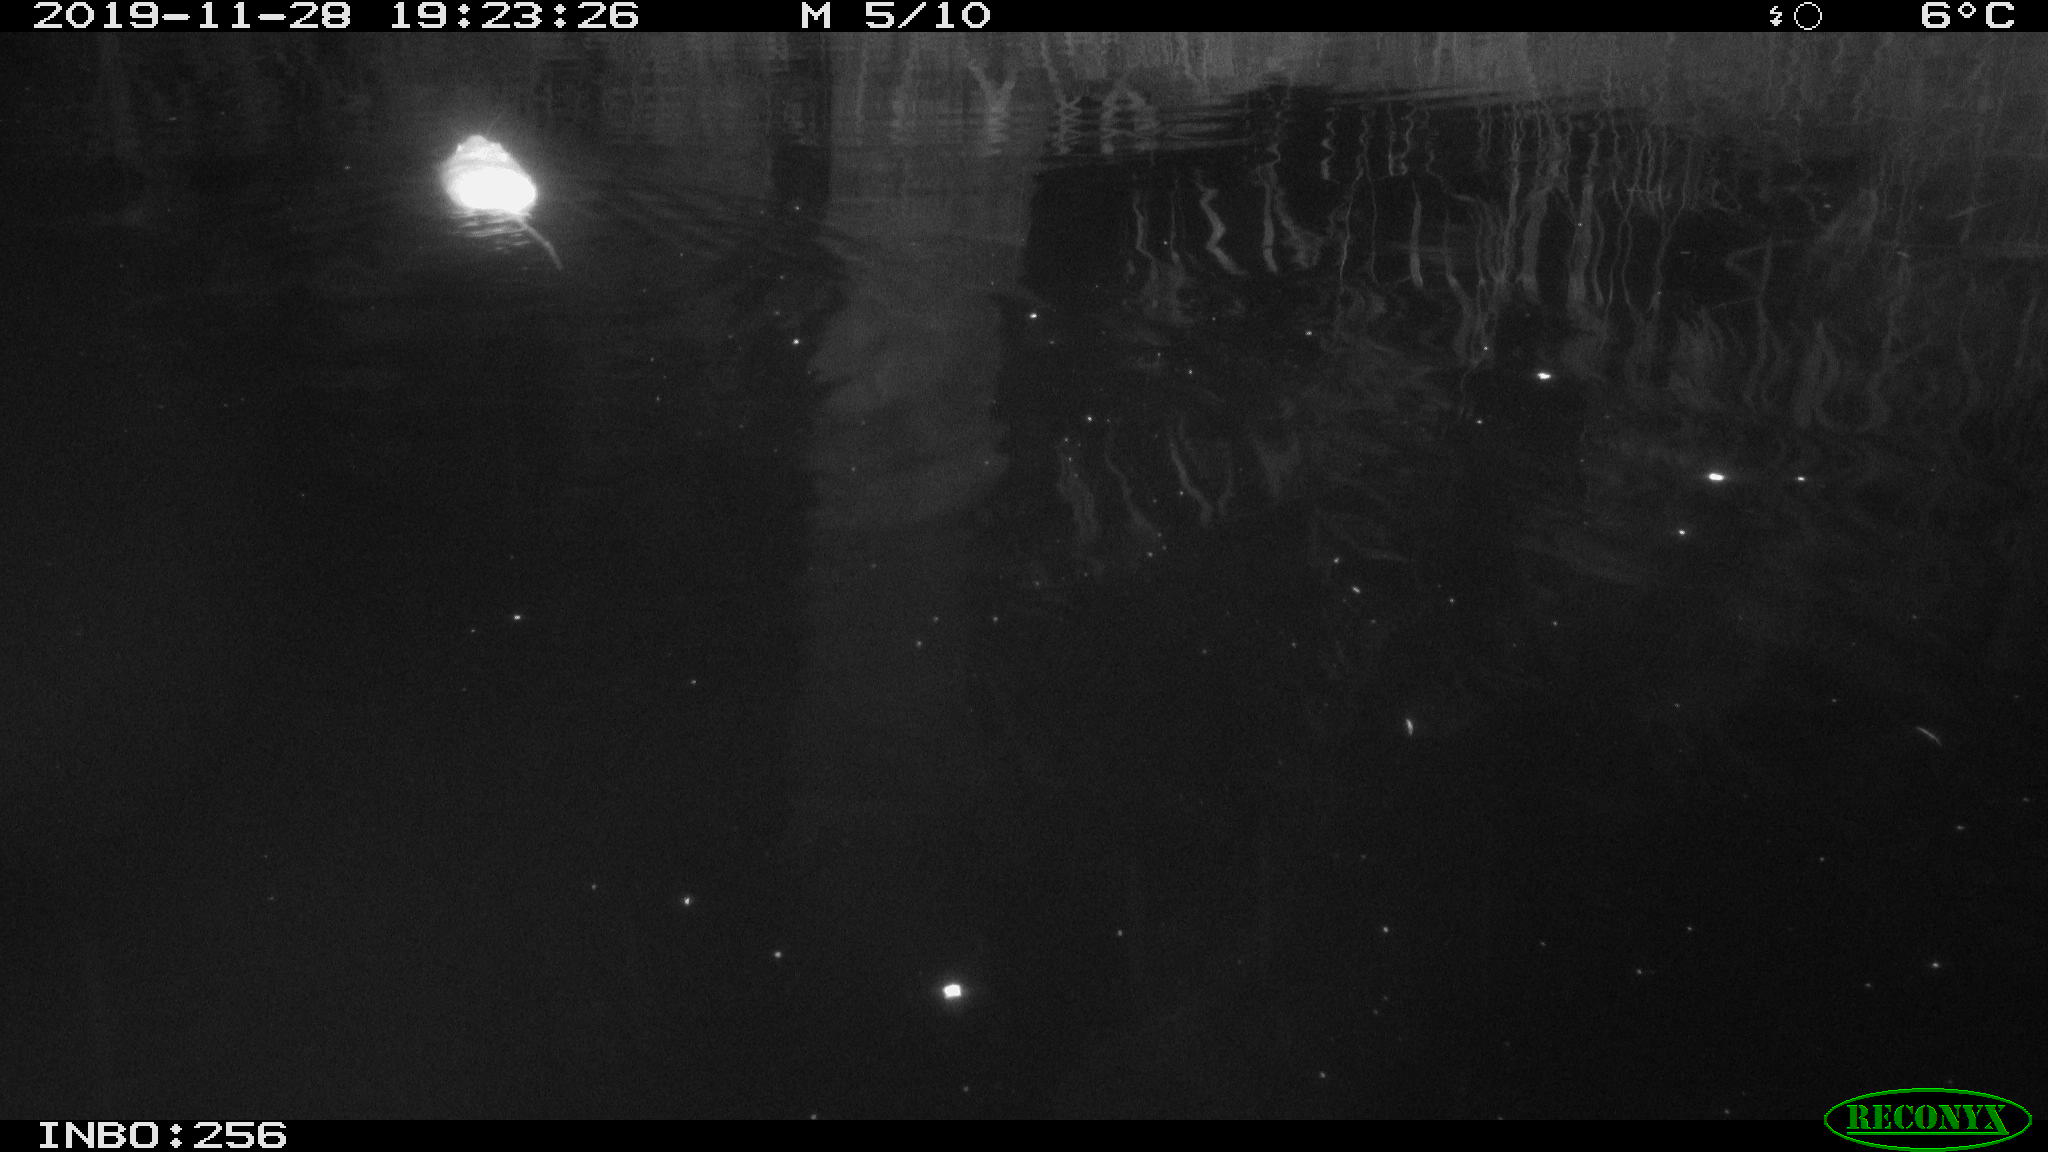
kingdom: Animalia
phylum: Chordata
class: Mammalia
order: Rodentia
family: Muridae
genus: Rattus
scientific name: Rattus norvegicus
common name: Brown rat
